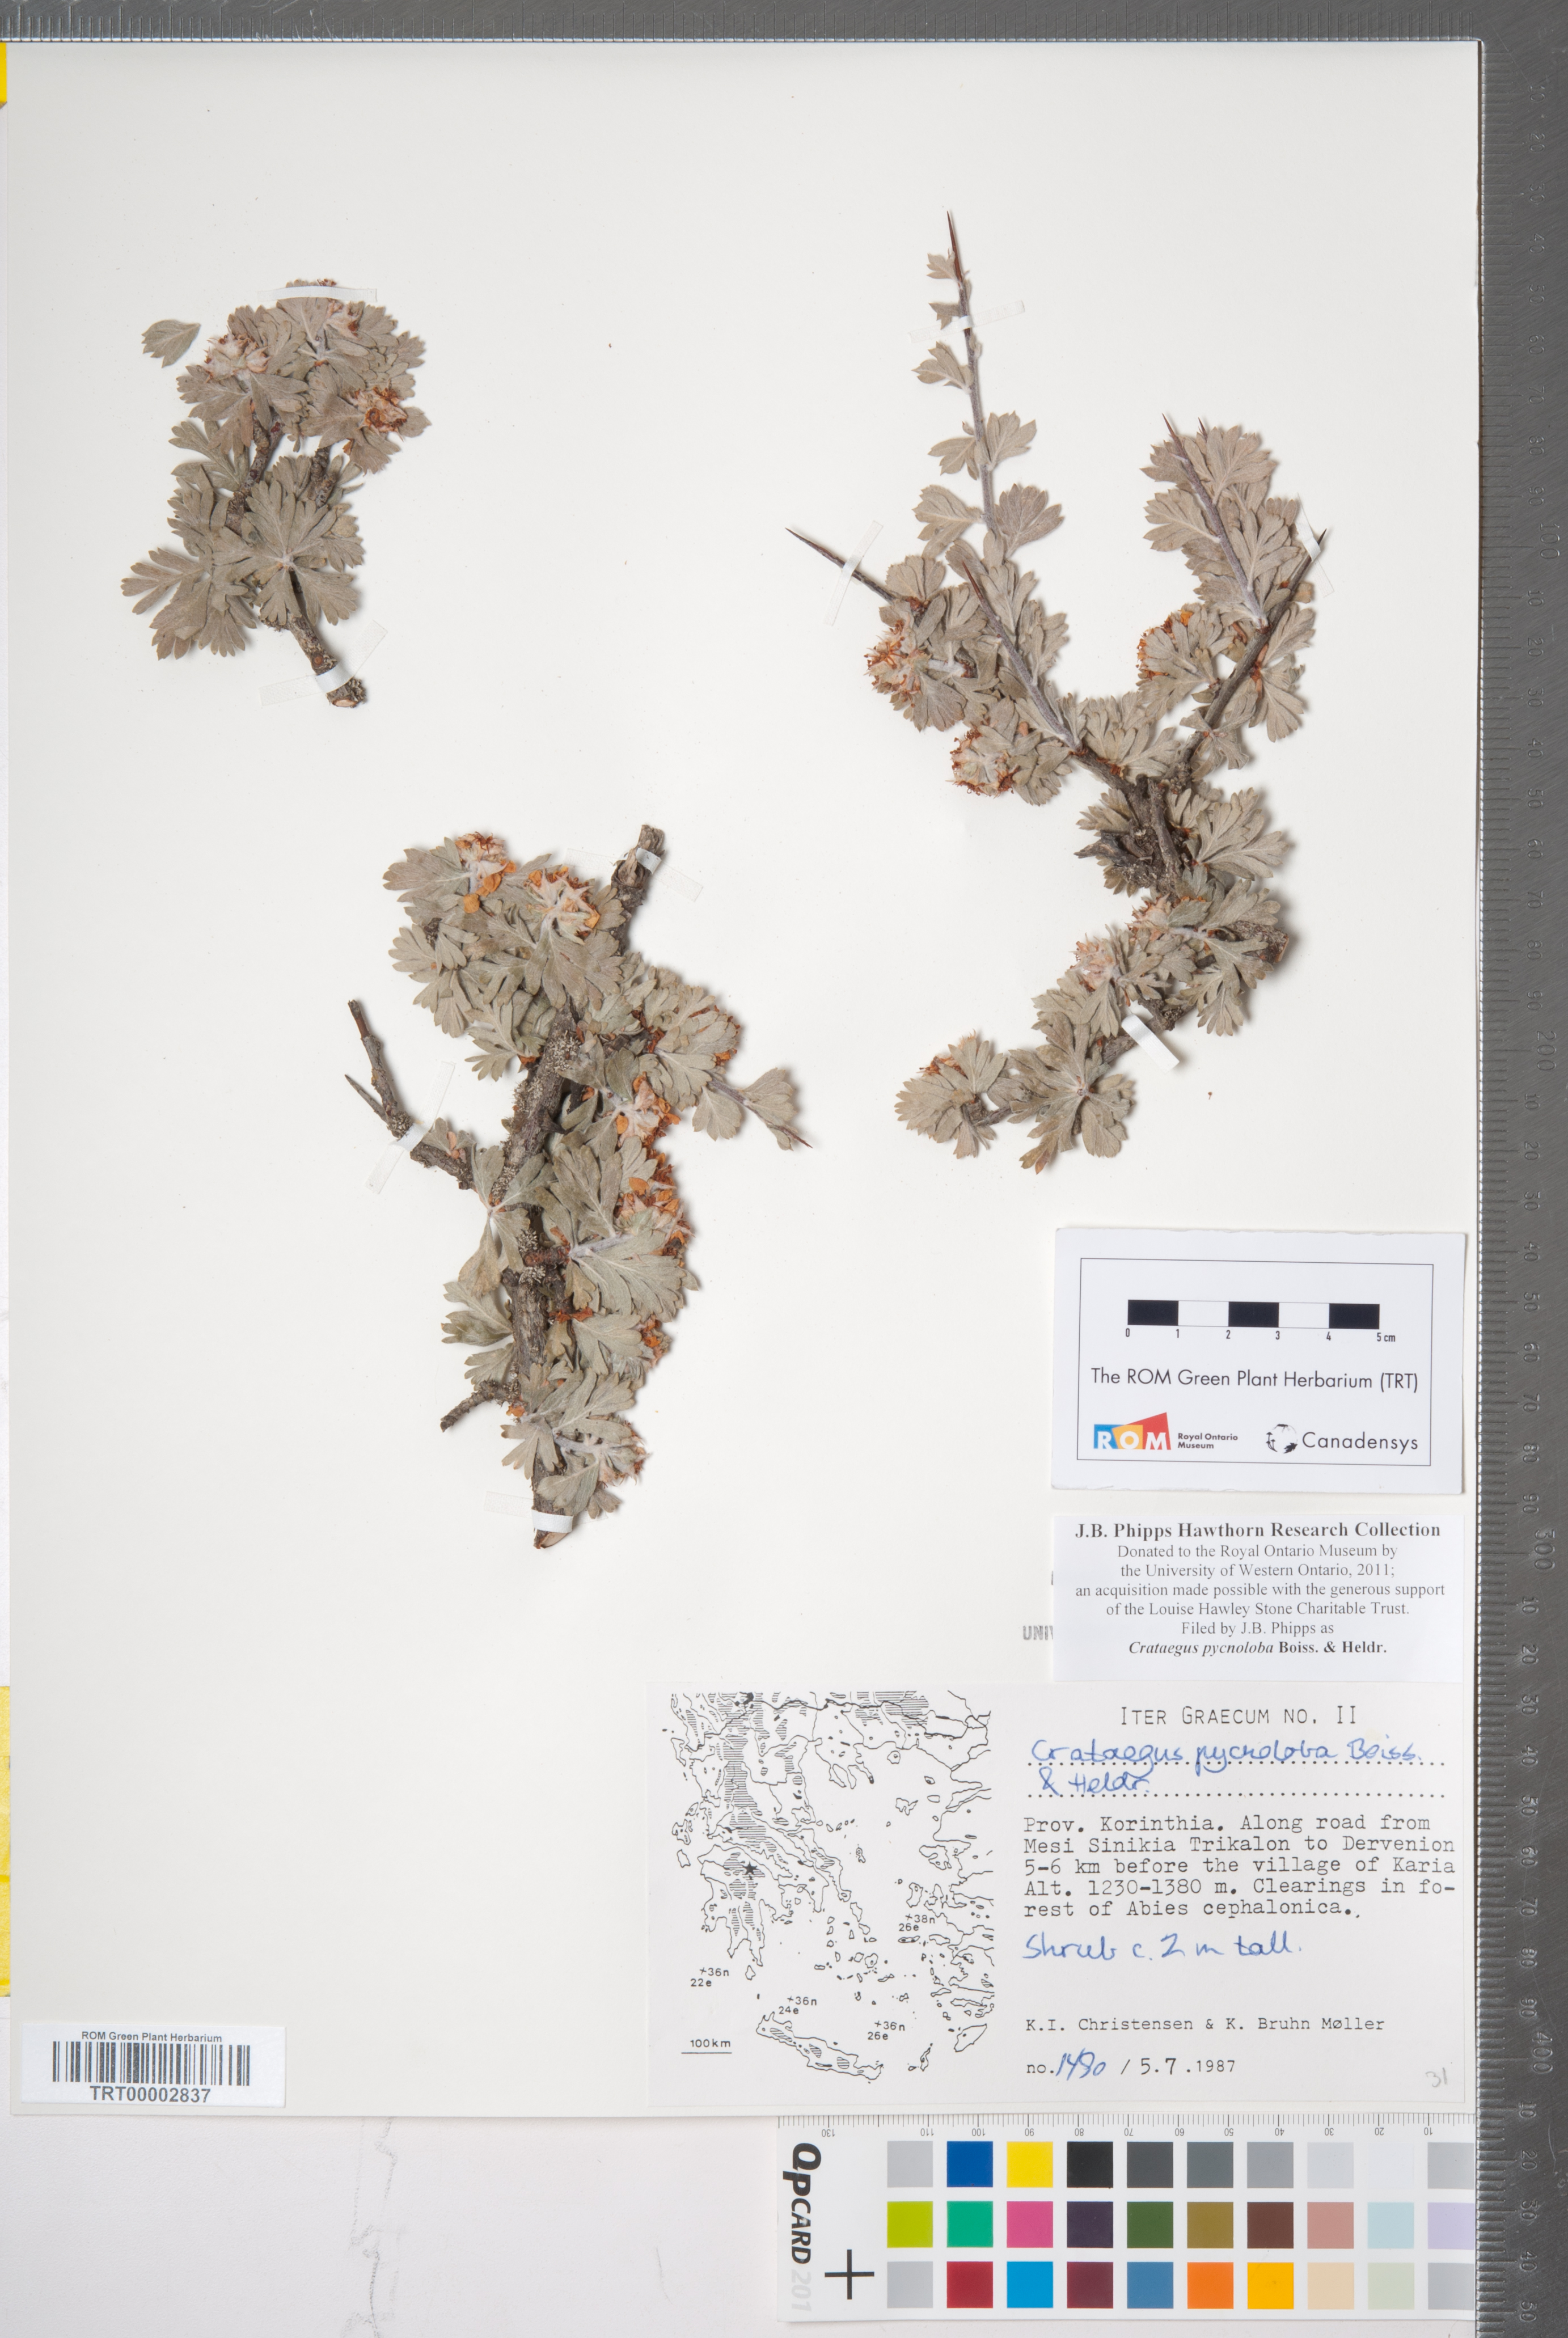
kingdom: Plantae
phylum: Tracheophyta
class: Magnoliopsida
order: Rosales
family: Rosaceae
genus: Crataegus
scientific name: Crataegus pycnoloba
